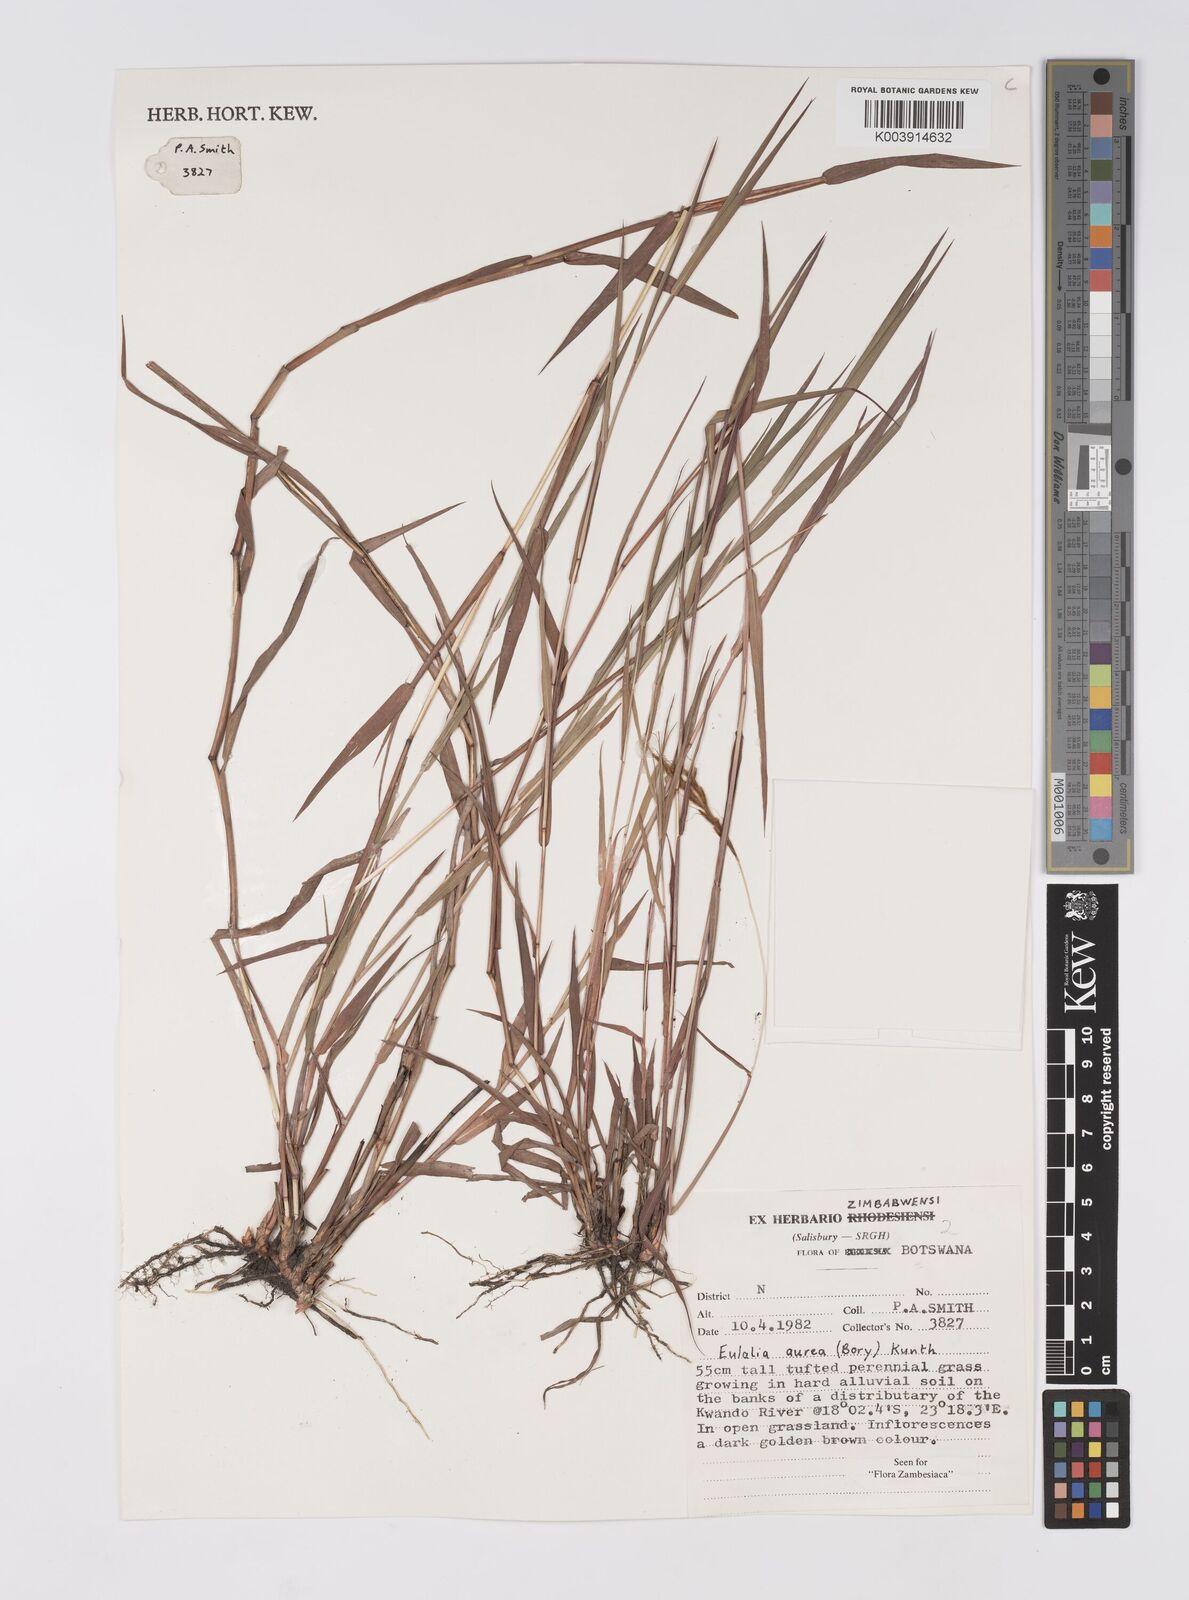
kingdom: Plantae
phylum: Tracheophyta
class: Liliopsida
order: Poales
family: Poaceae
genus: Eulalia
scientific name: Eulalia aurea
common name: Silky browntop
